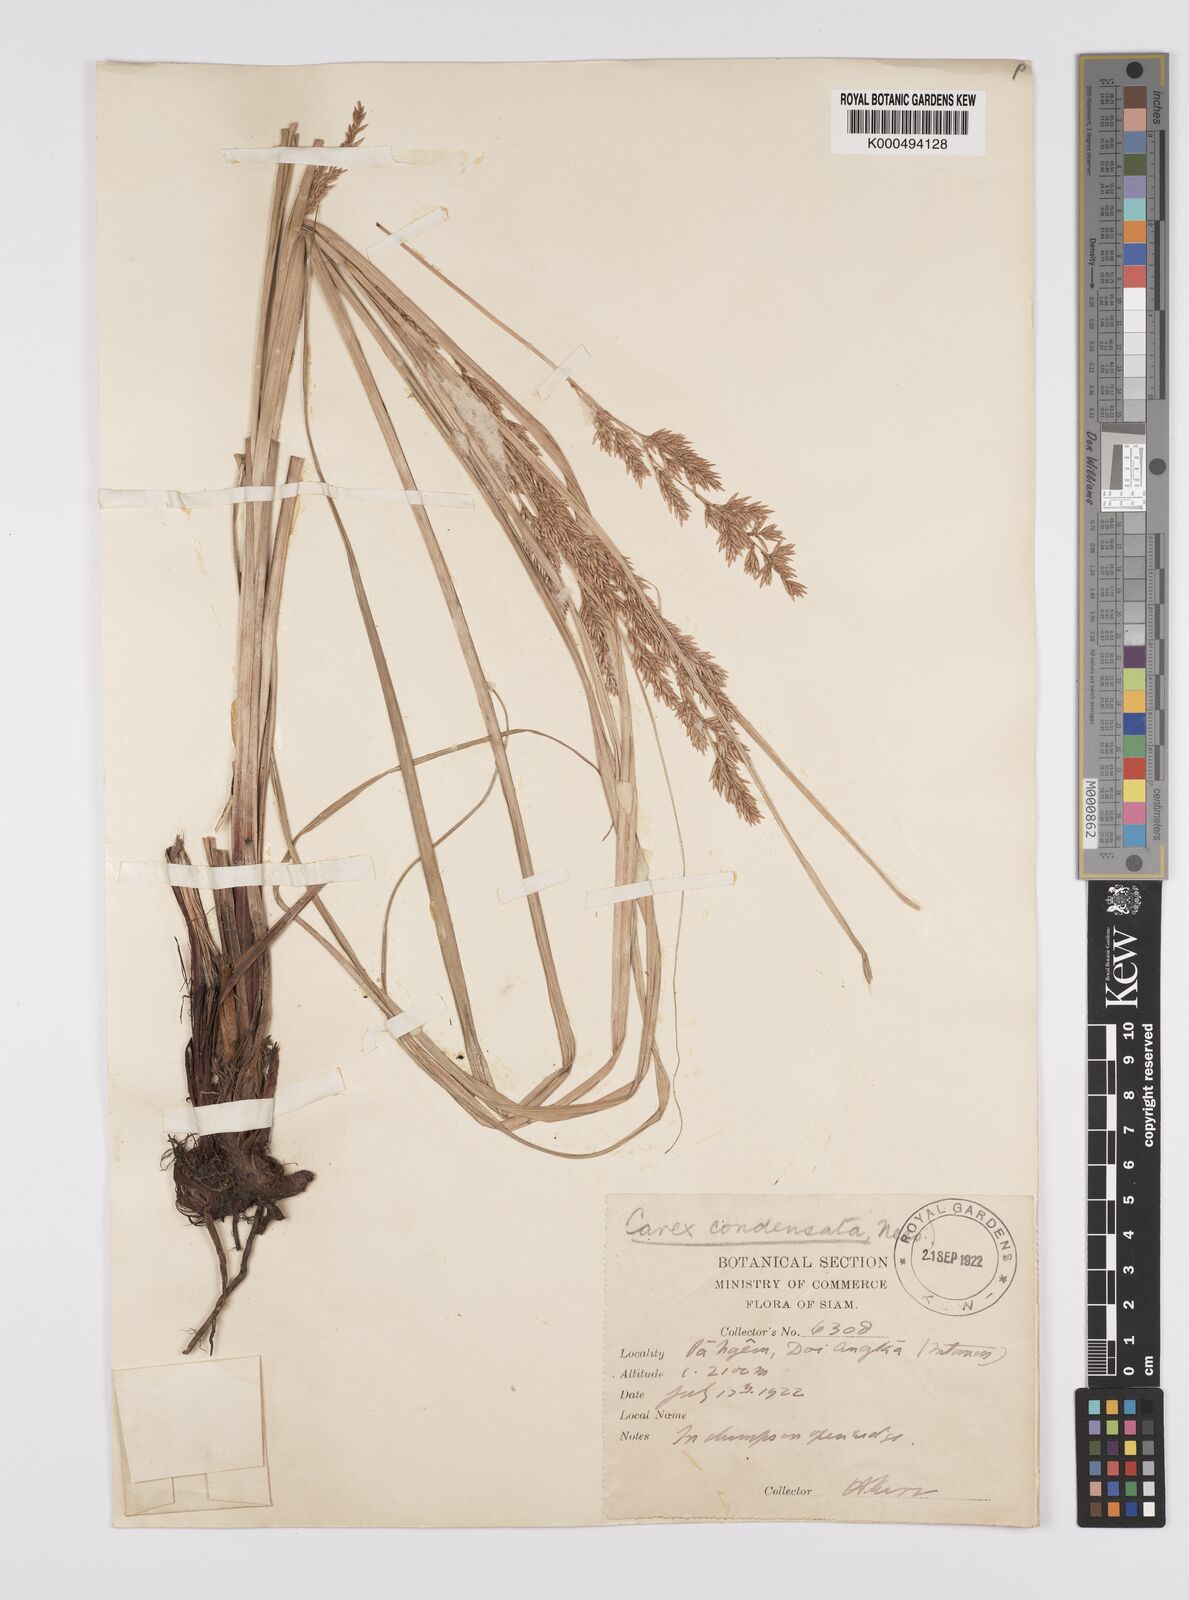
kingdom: Plantae
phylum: Tracheophyta
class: Liliopsida
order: Poales
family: Cyperaceae
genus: Carex
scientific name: Carex condensata
